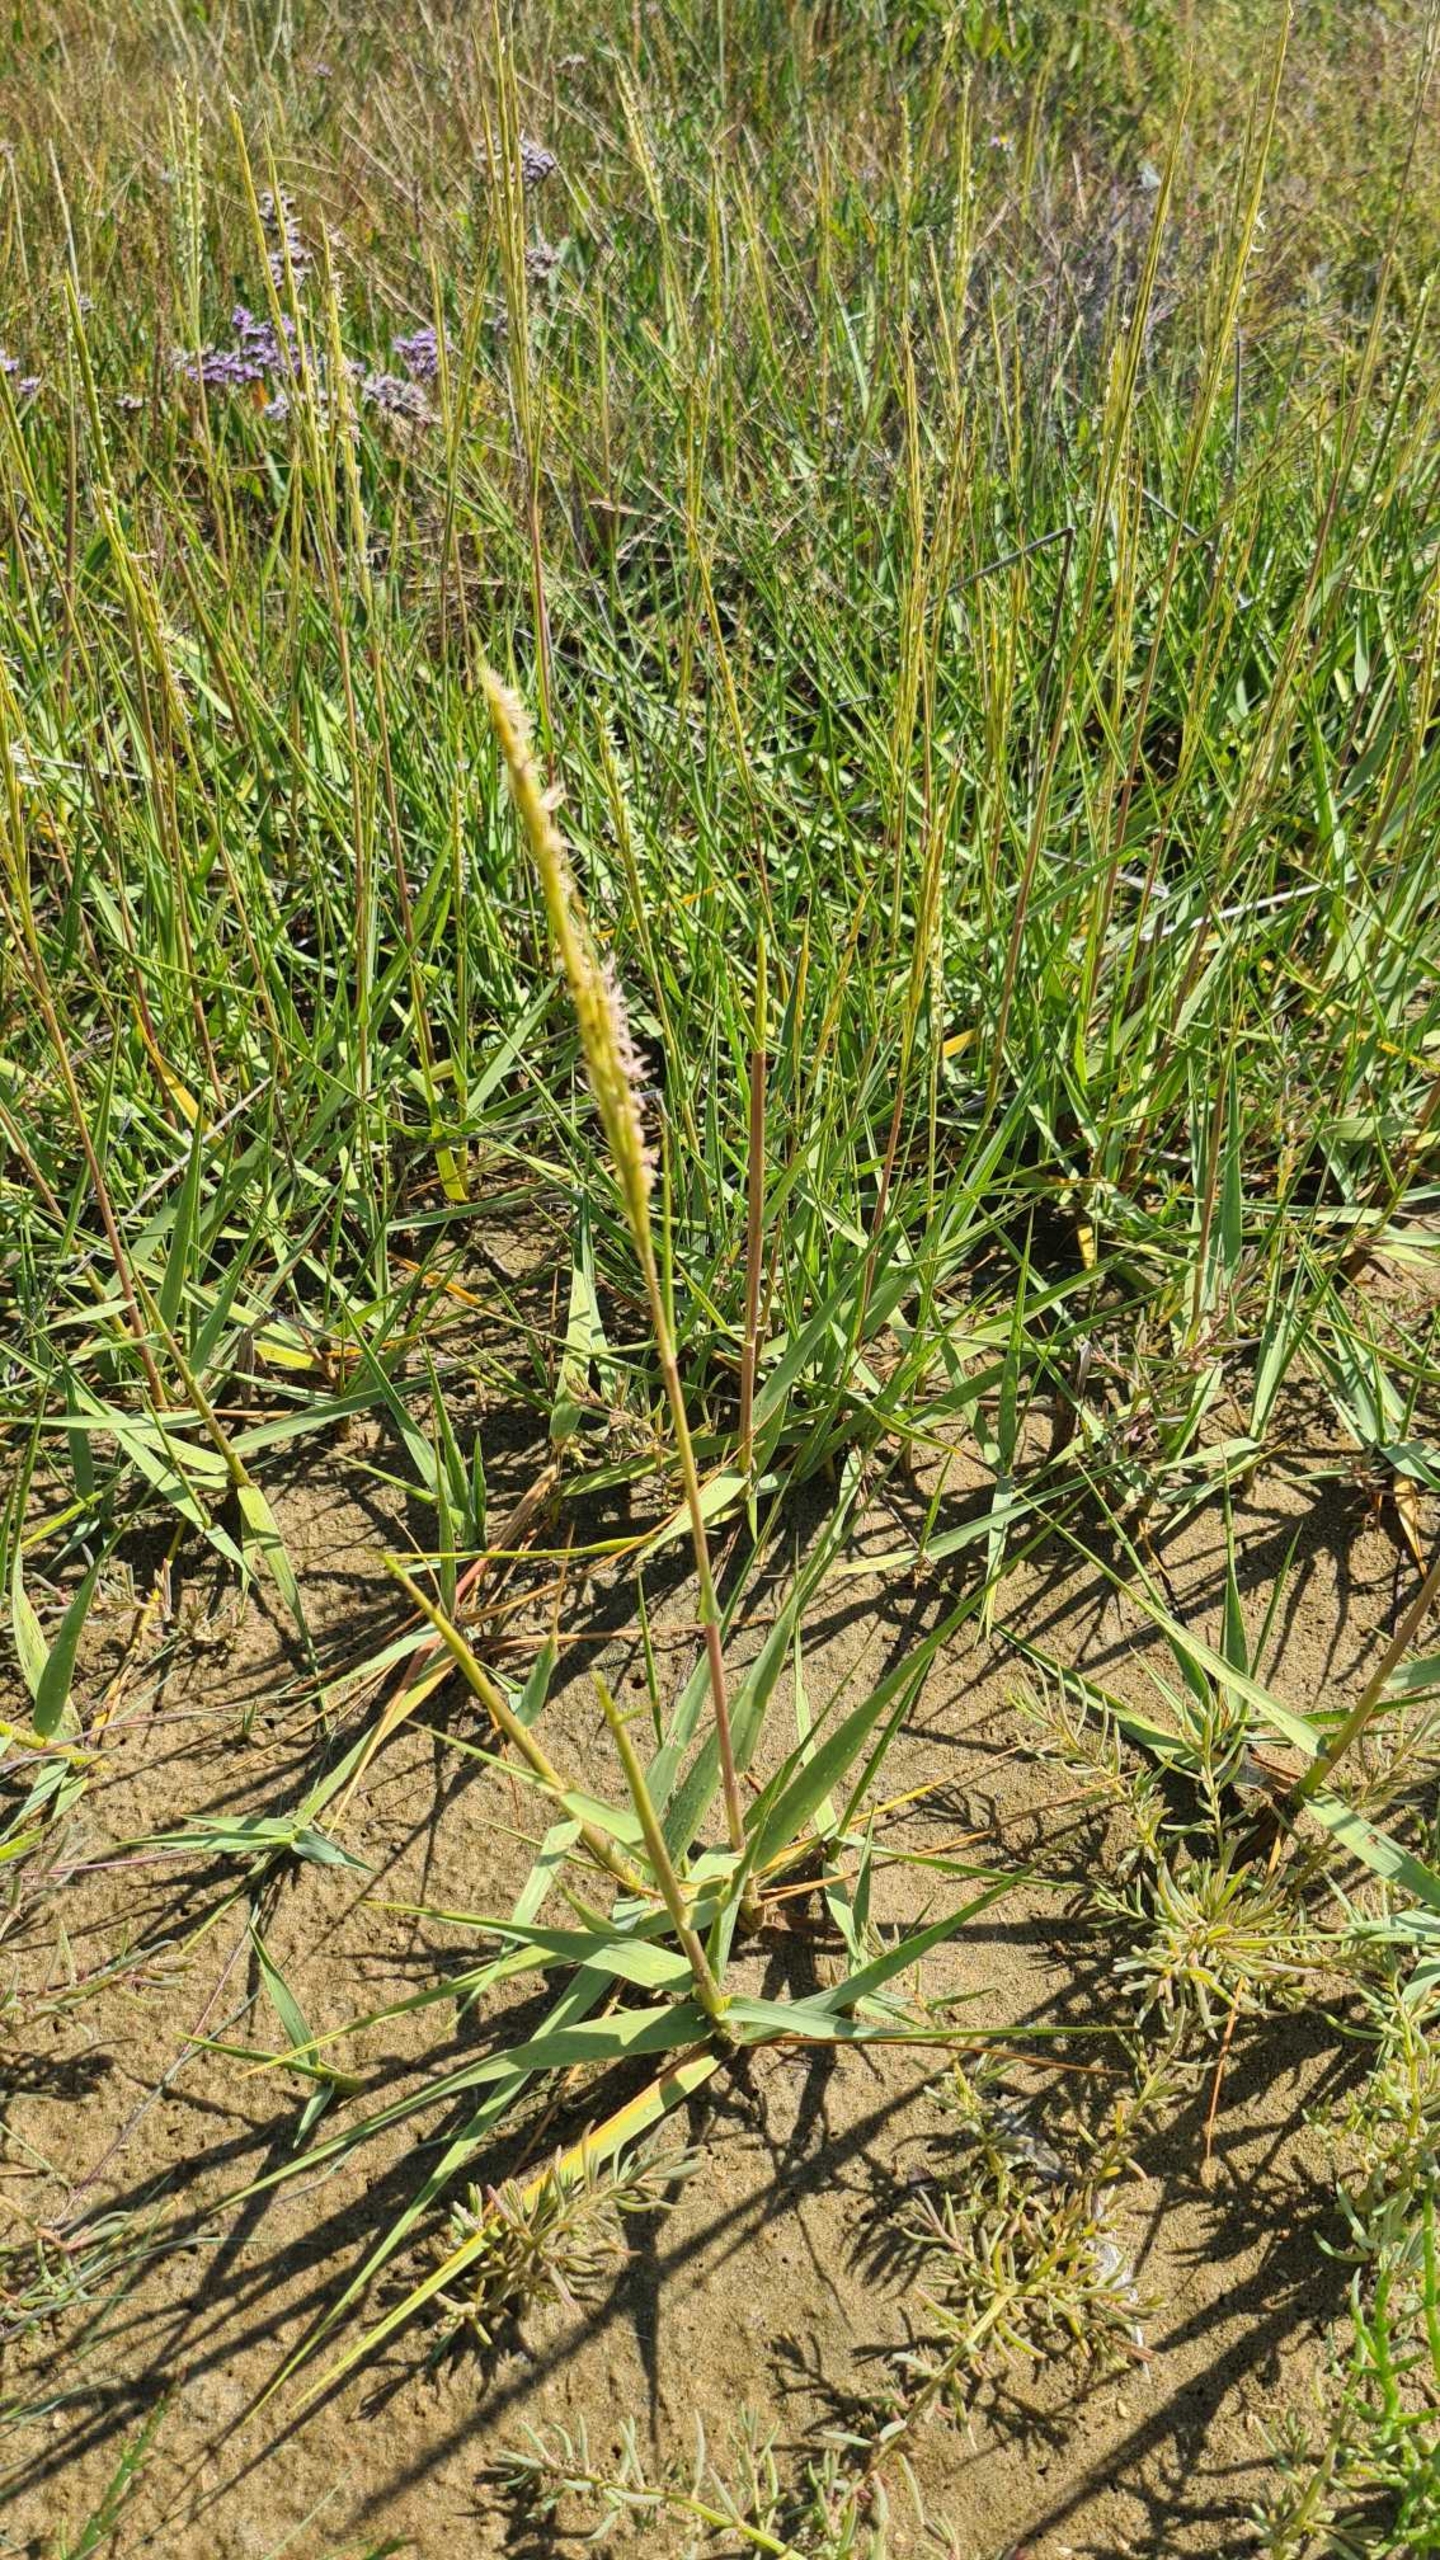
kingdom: Plantae
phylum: Tracheophyta
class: Liliopsida
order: Poales
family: Poaceae
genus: Sporobolus
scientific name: Sporobolus anglicus
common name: Engelsk vadegræs
